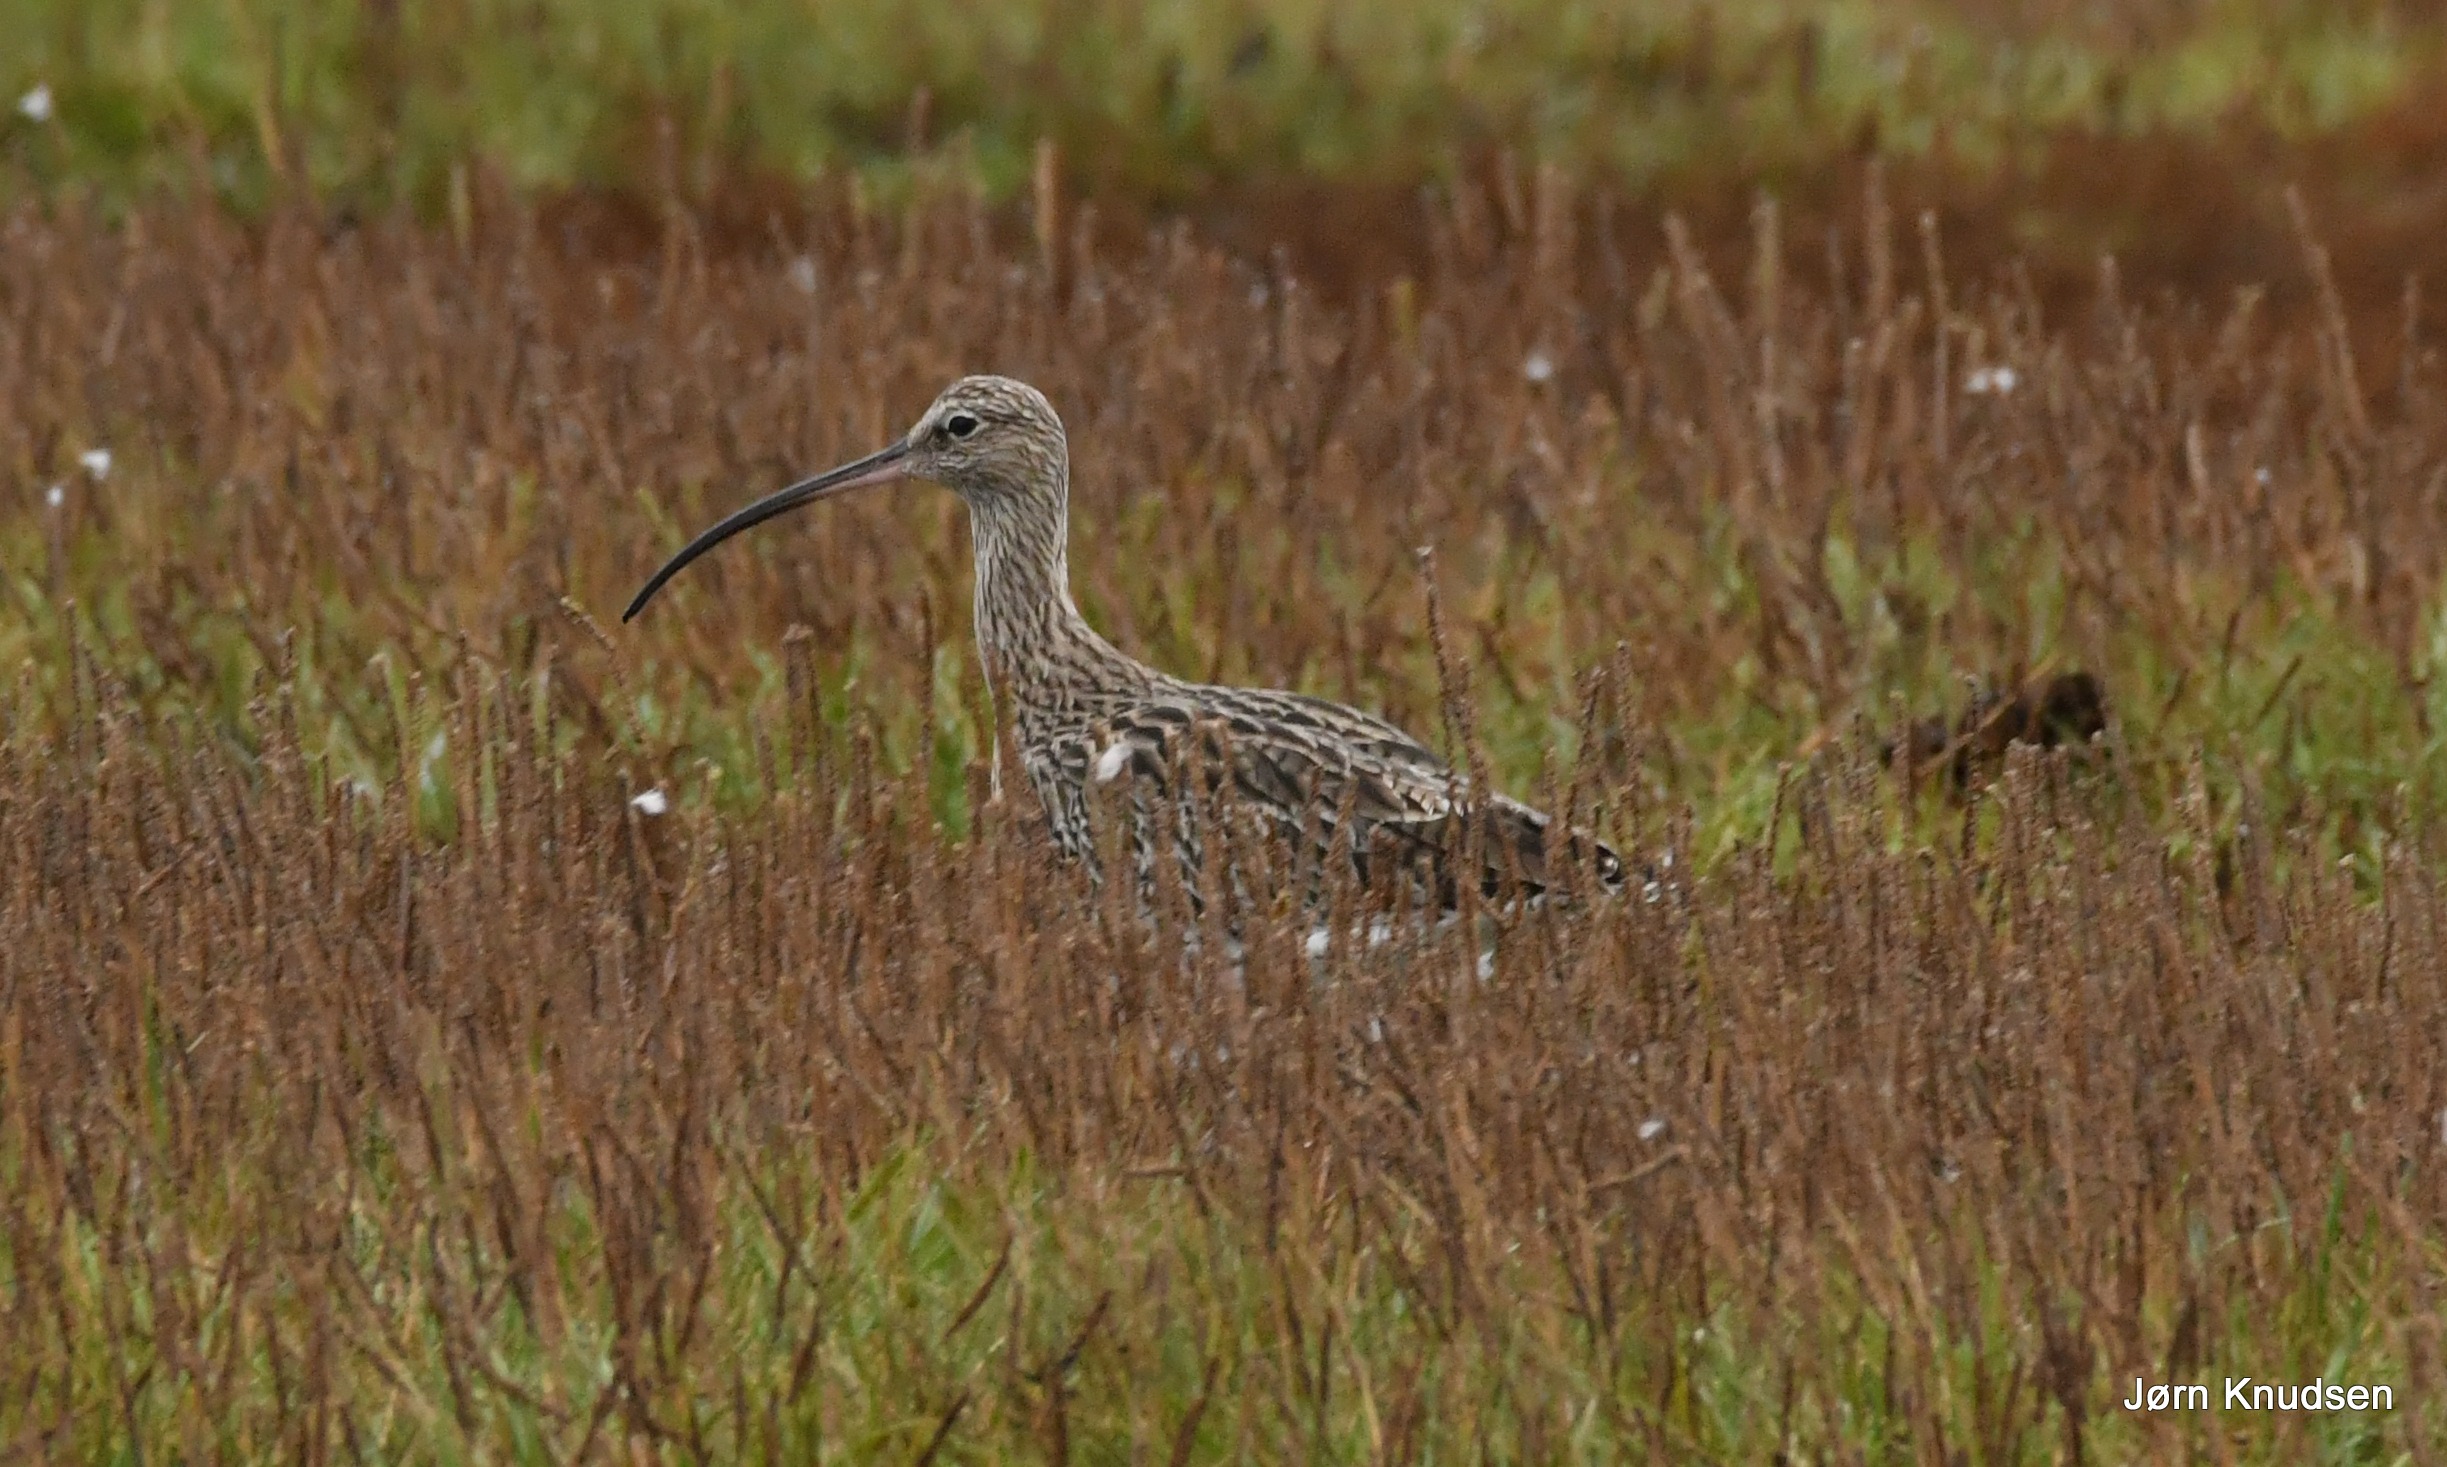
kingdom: Animalia
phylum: Chordata
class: Aves
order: Charadriiformes
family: Scolopacidae
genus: Numenius
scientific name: Numenius arquata
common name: Storspove
